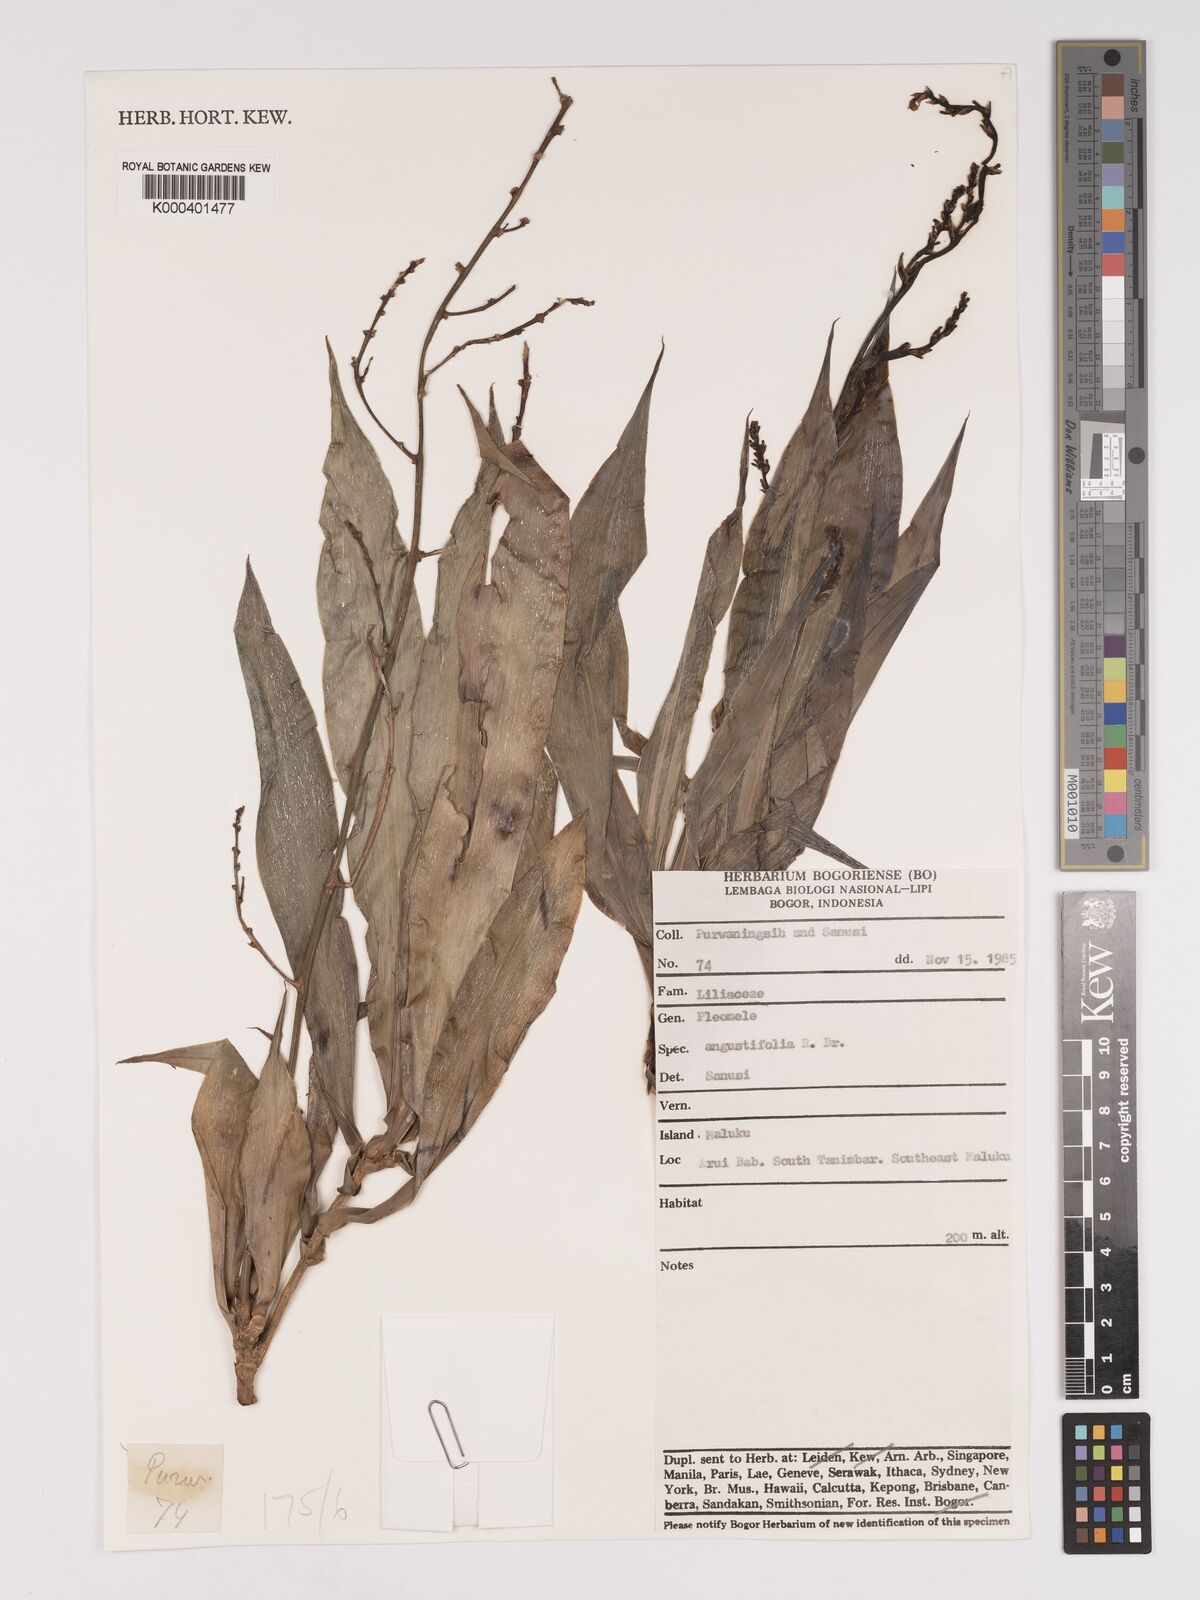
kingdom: Plantae
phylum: Tracheophyta
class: Liliopsida
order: Asparagales
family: Asparagaceae
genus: Dracaena
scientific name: Dracaena angustifolia
